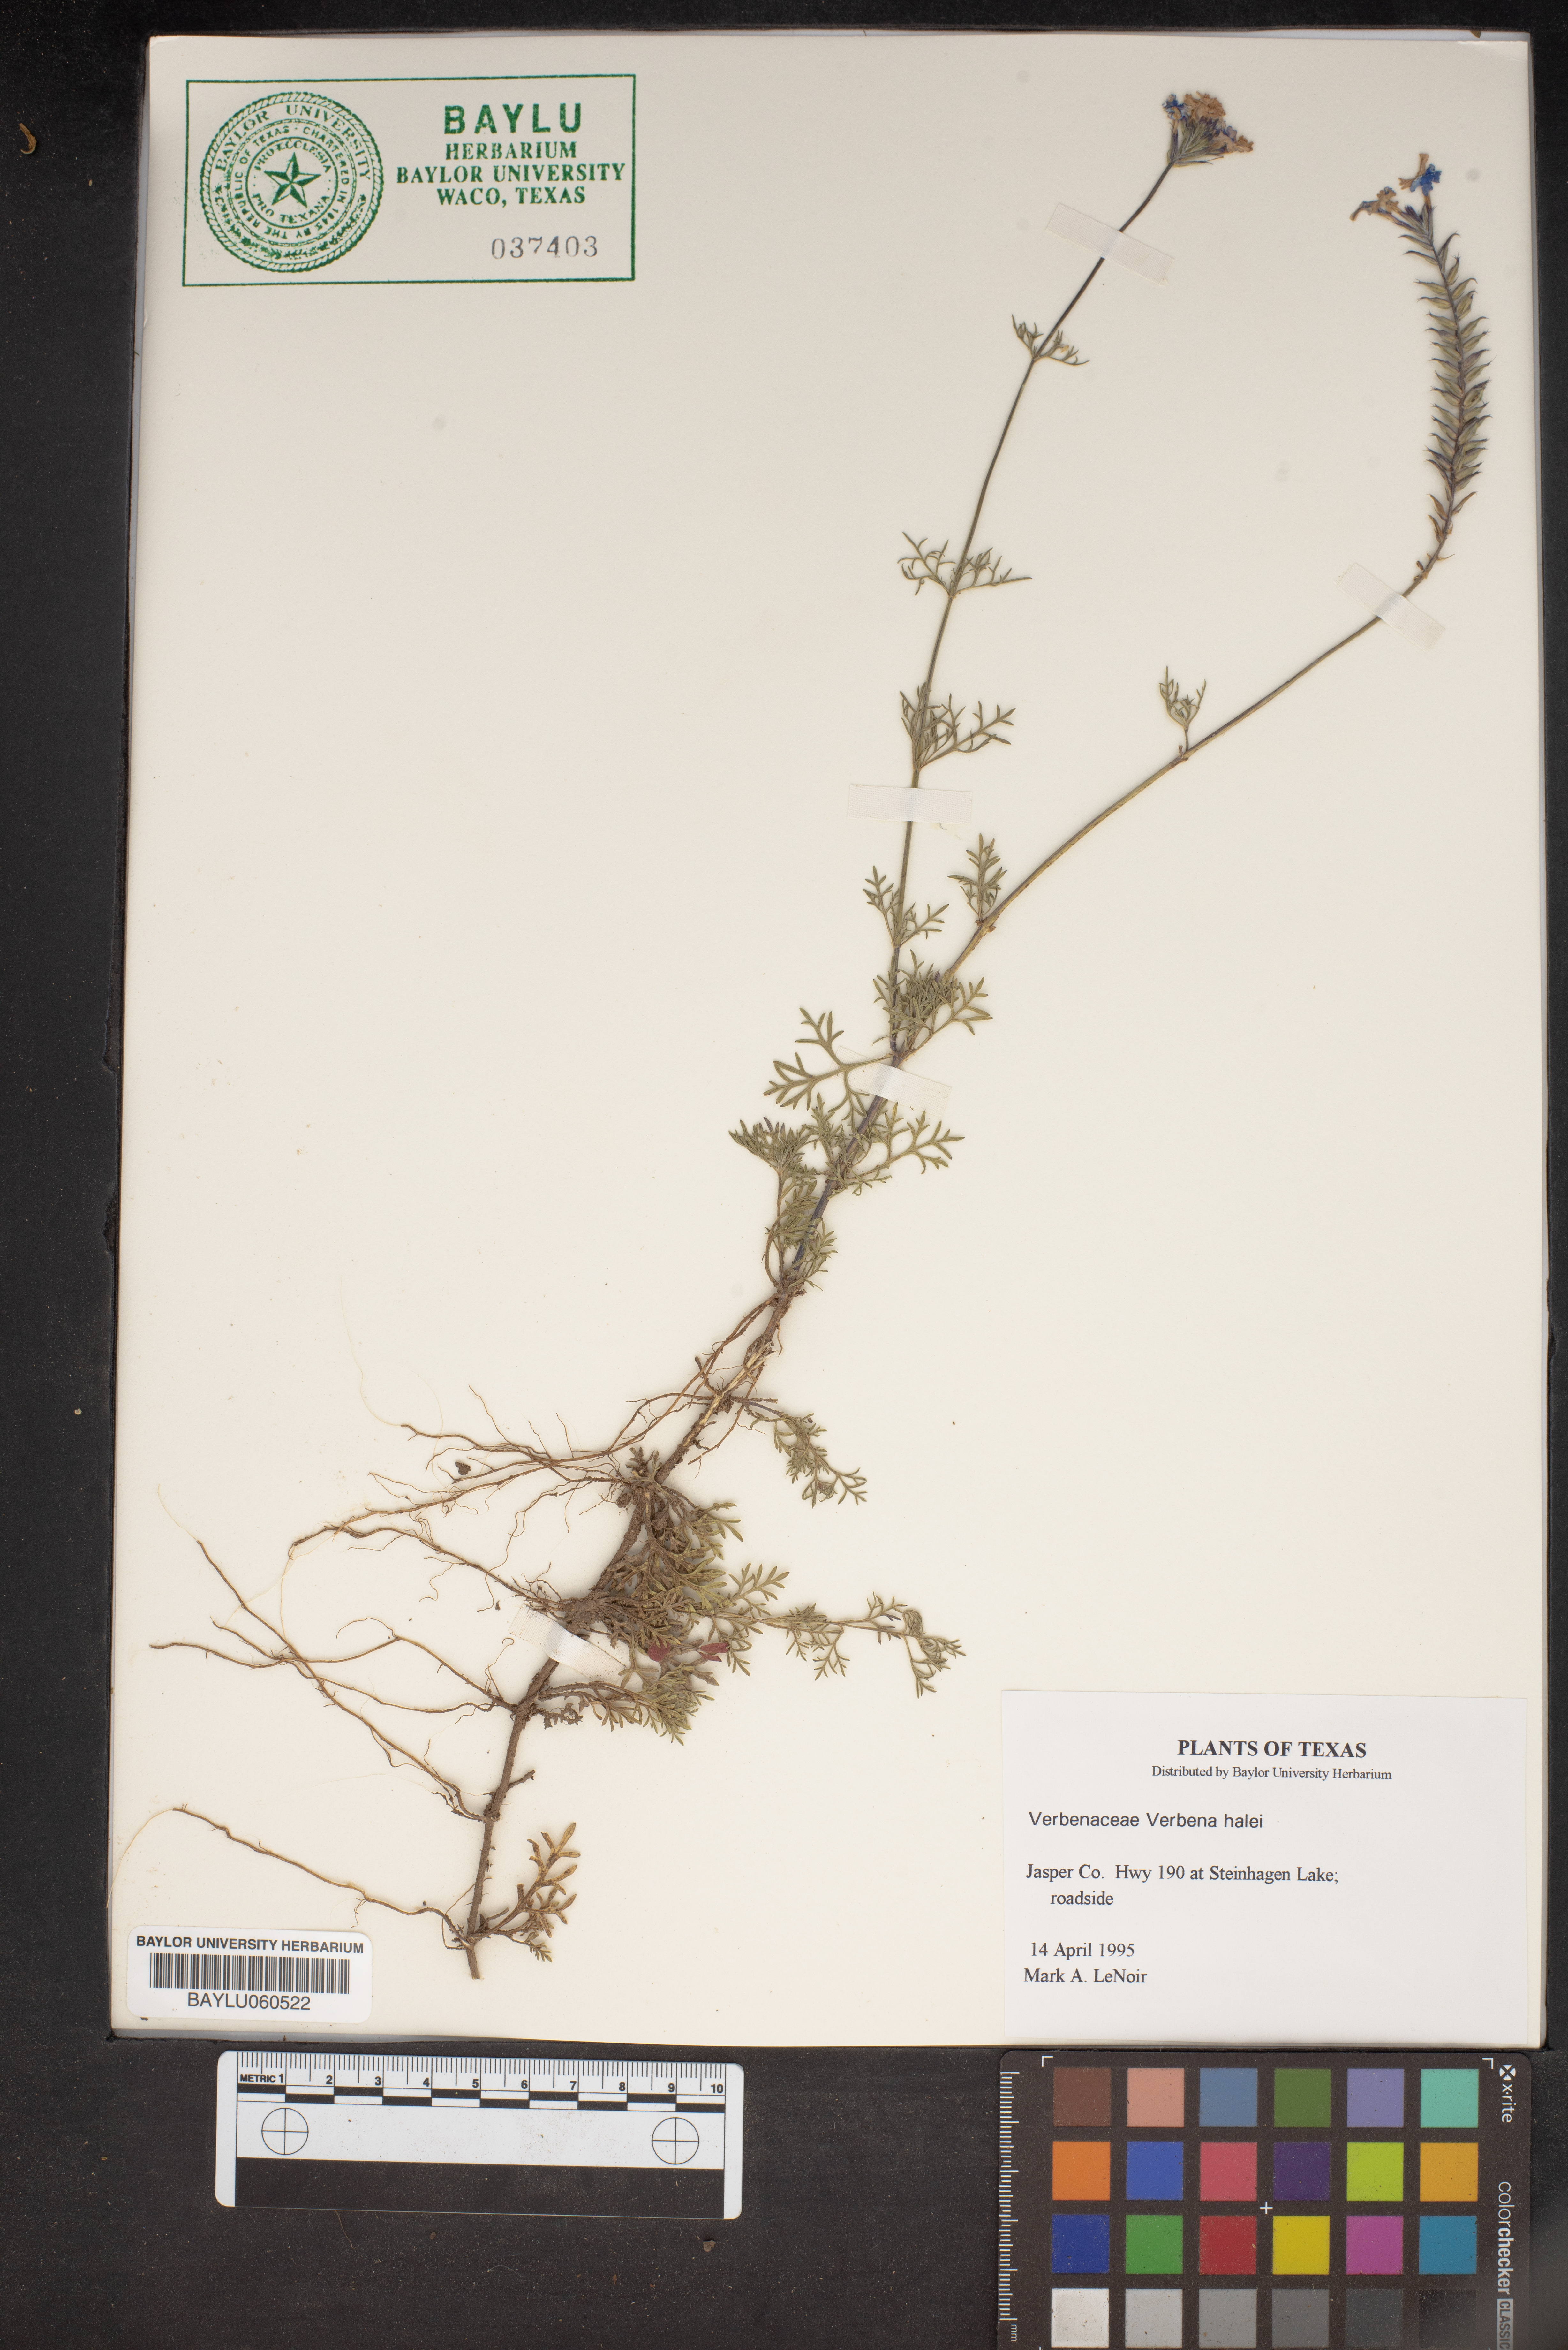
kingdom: Plantae
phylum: Tracheophyta
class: Magnoliopsida
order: Lamiales
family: Verbenaceae
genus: Verbena
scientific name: Verbena halei
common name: Texas vervain
